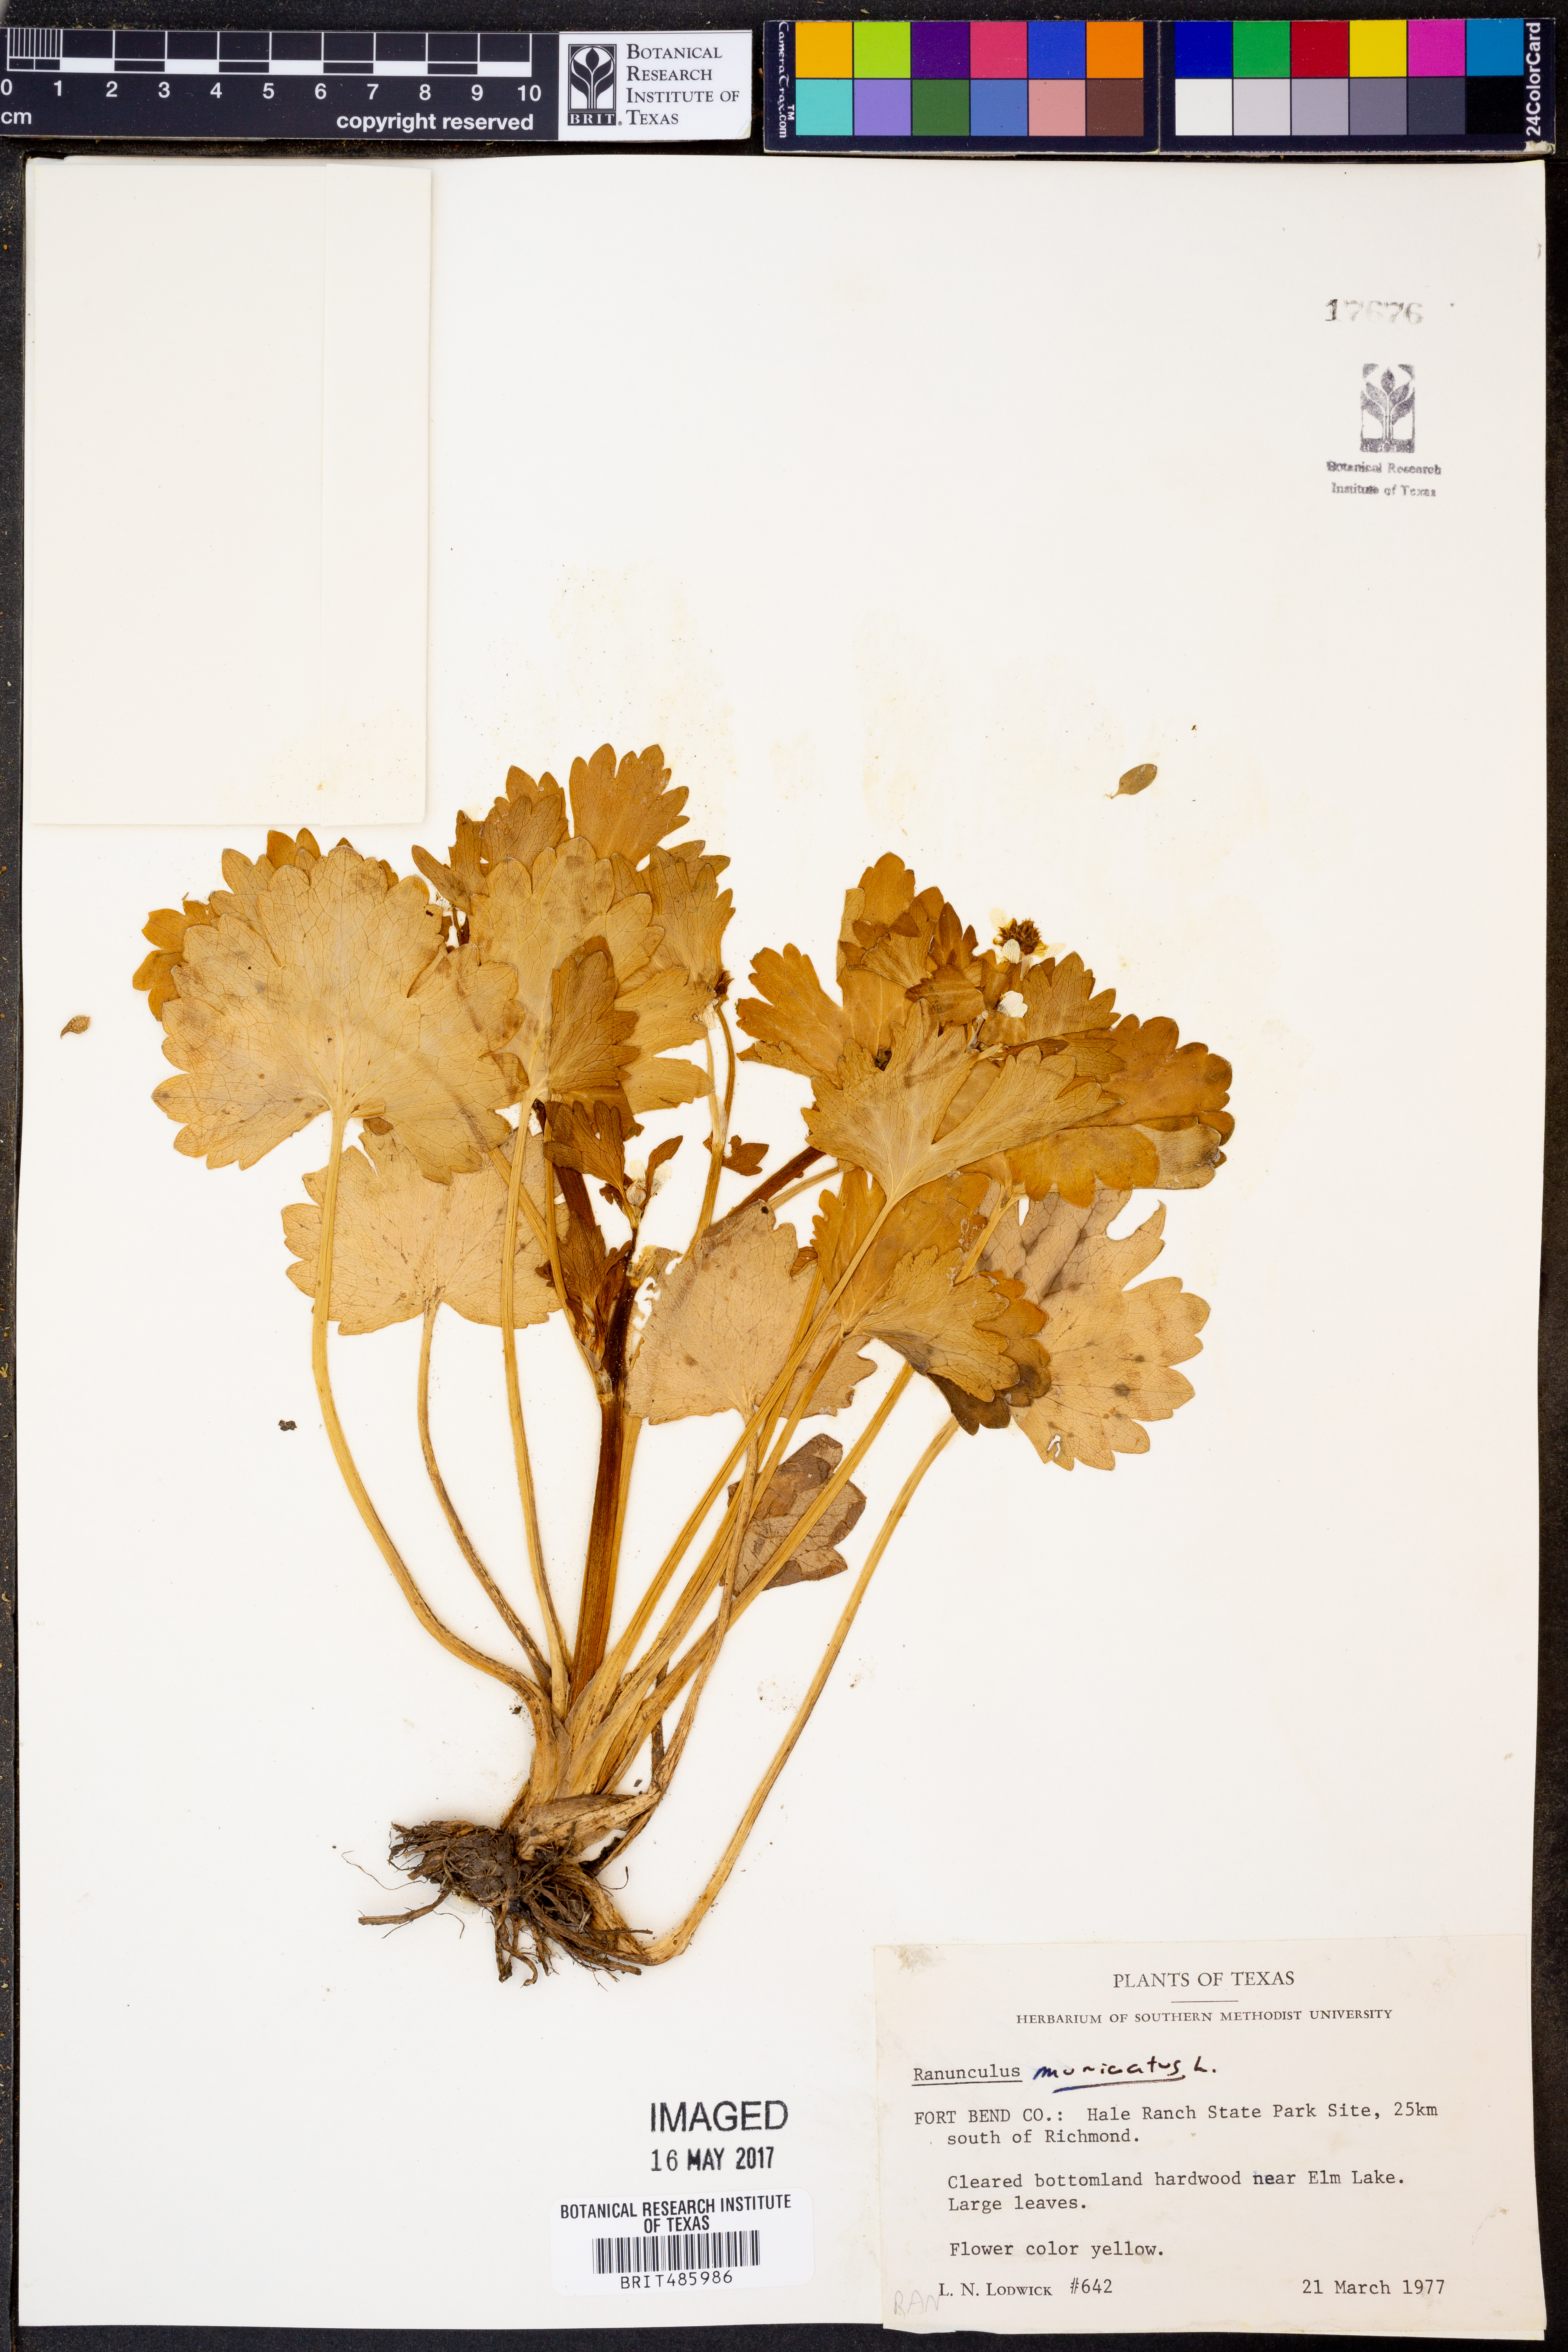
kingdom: Plantae
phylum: Tracheophyta
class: Magnoliopsida
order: Ranunculales
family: Ranunculaceae
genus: Ranunculus
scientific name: Ranunculus muricatus
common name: Rough-fruited buttercup
